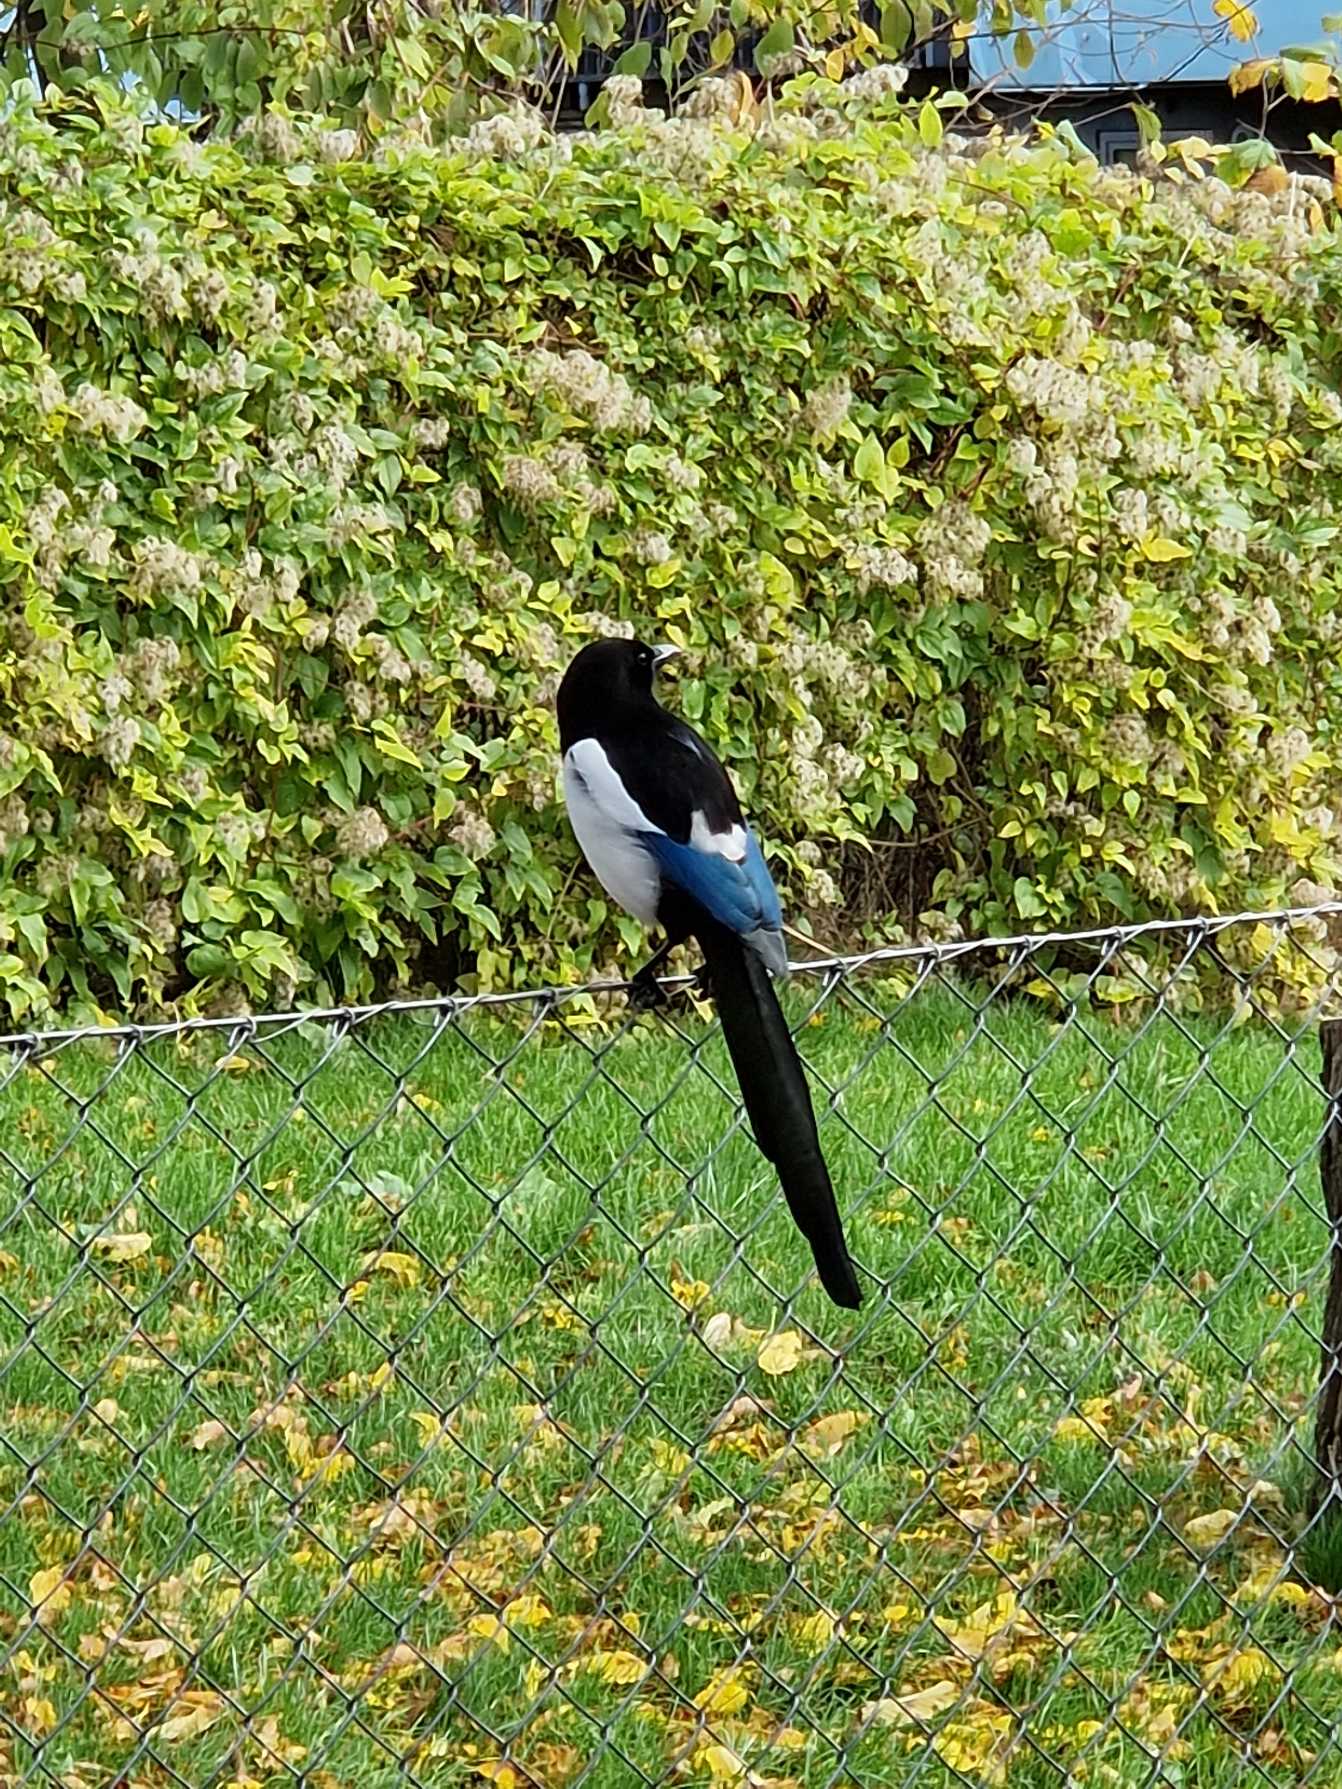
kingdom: Animalia
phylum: Chordata
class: Aves
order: Passeriformes
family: Corvidae
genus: Pica
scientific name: Pica pica
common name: Husskade
